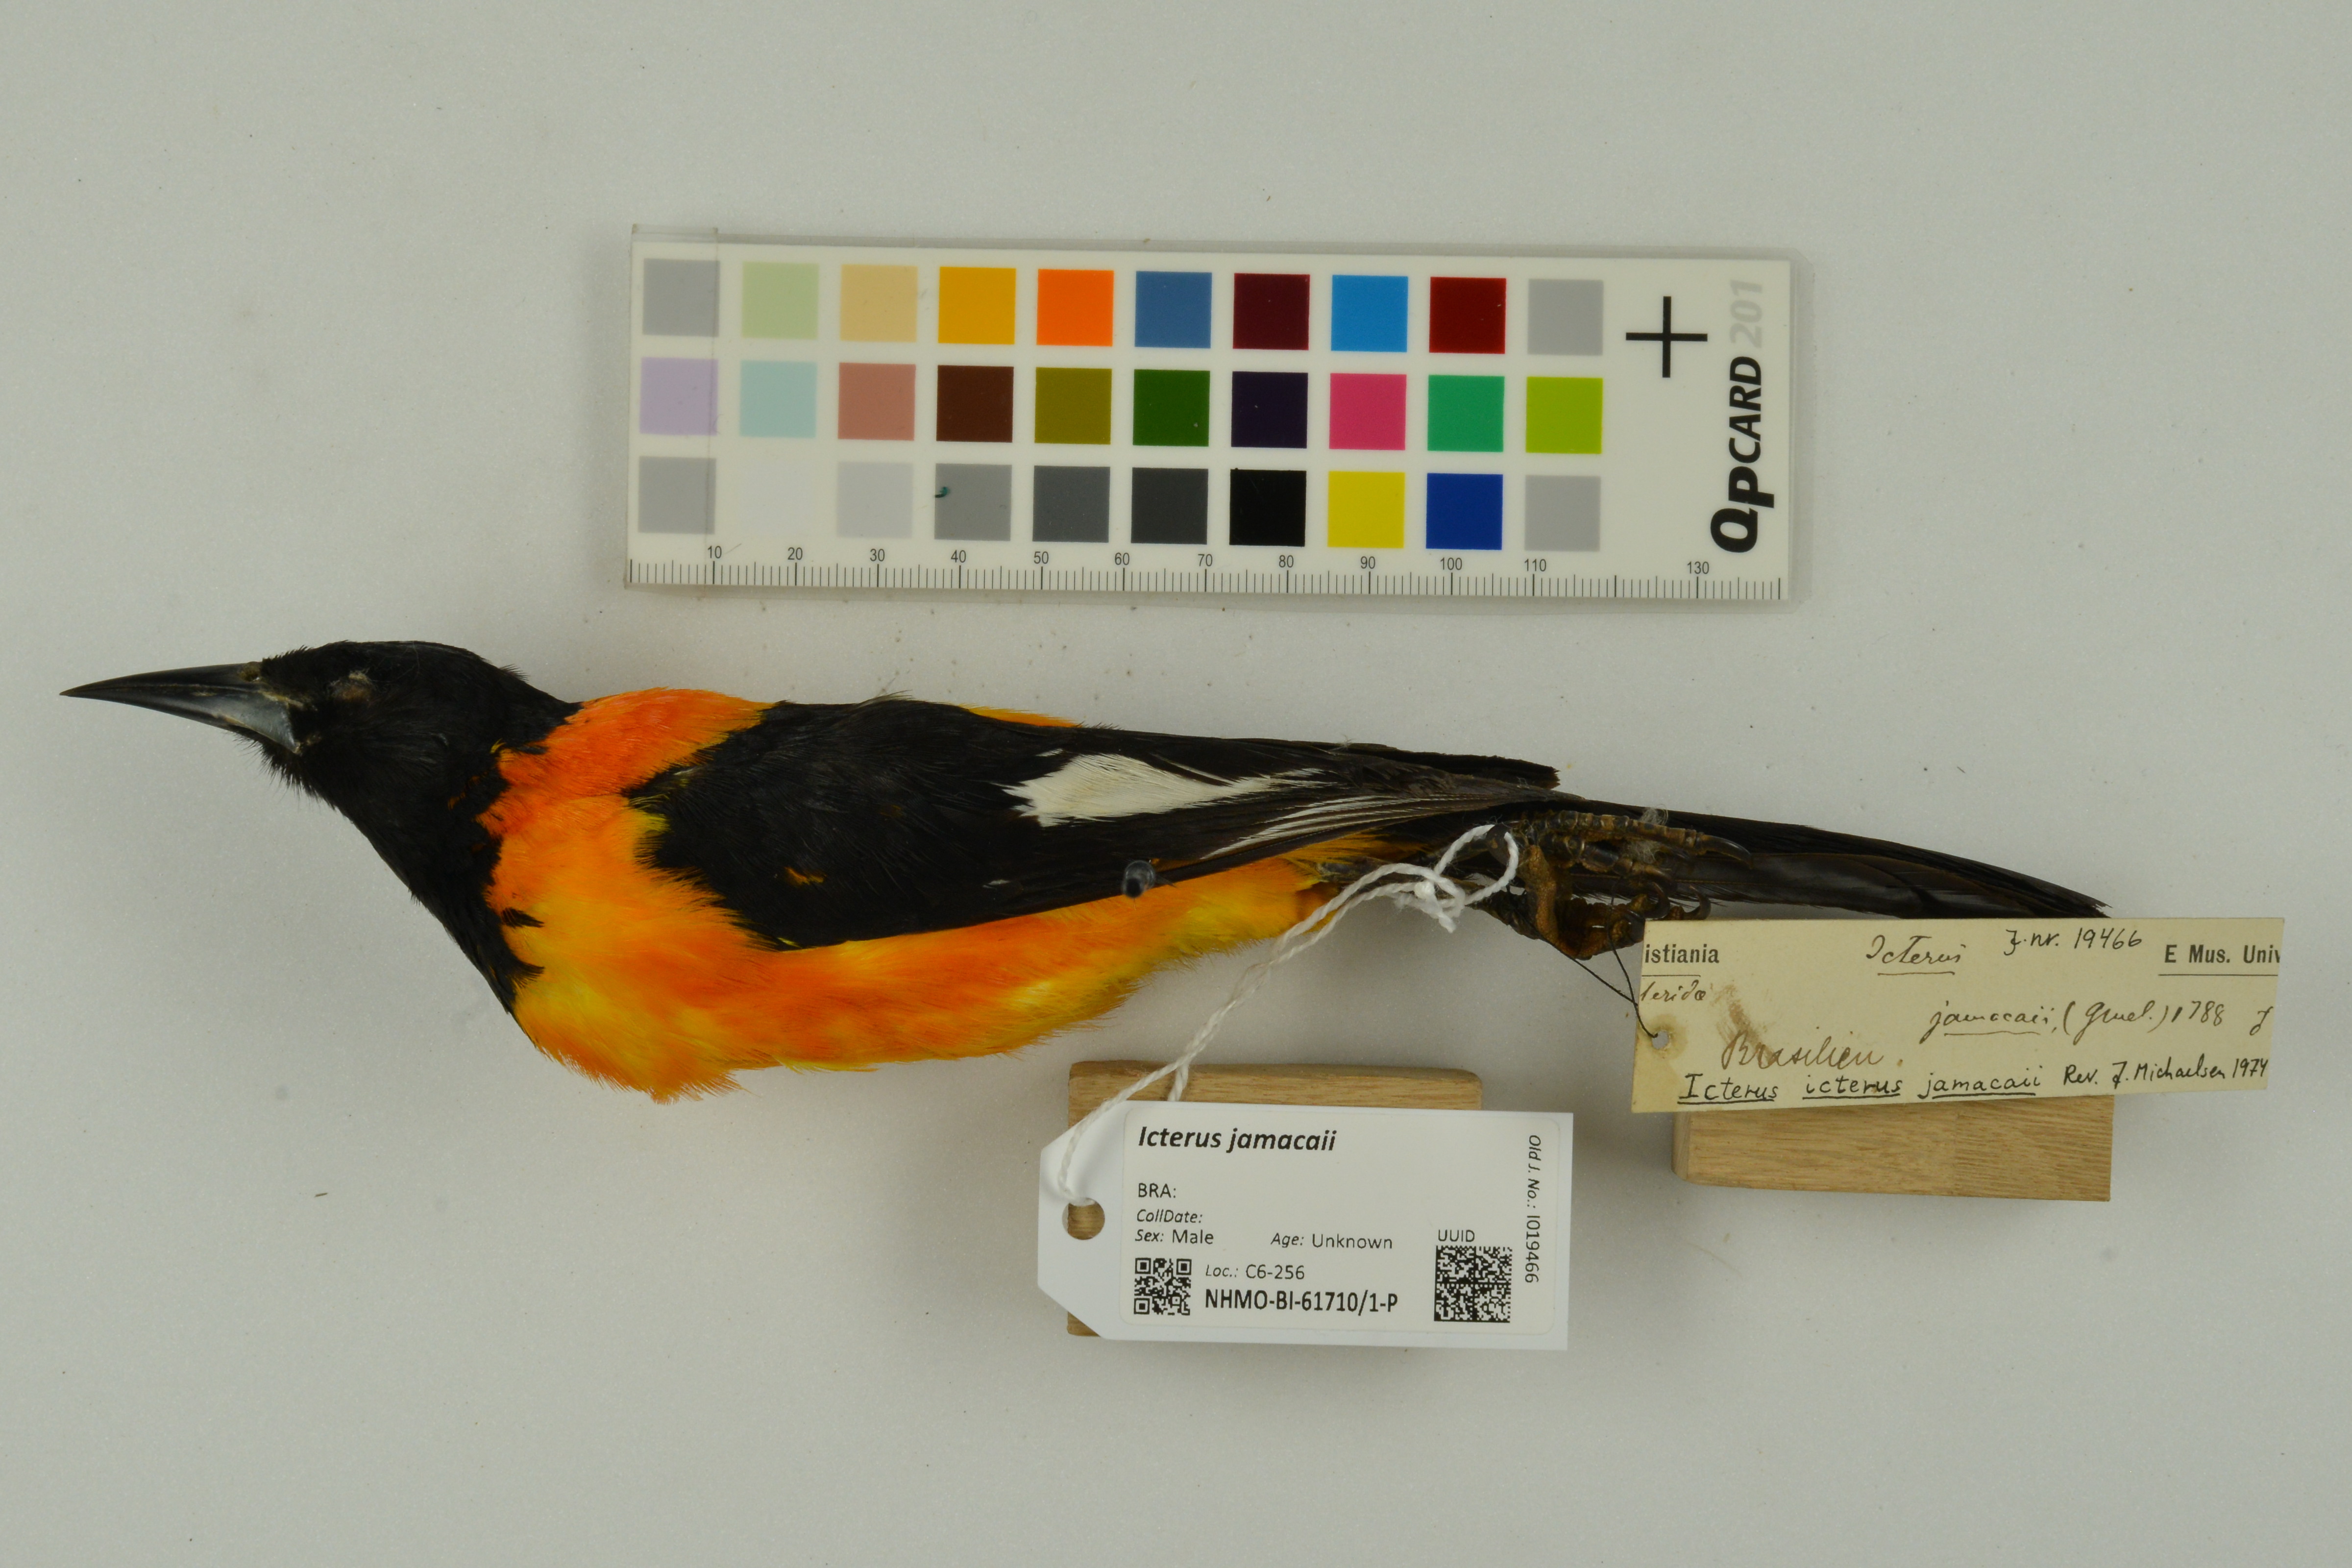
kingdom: Animalia
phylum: Chordata
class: Aves
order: Passeriformes
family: Icteridae
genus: Icterus
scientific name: Icterus icterus
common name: Venezuelan troupial
